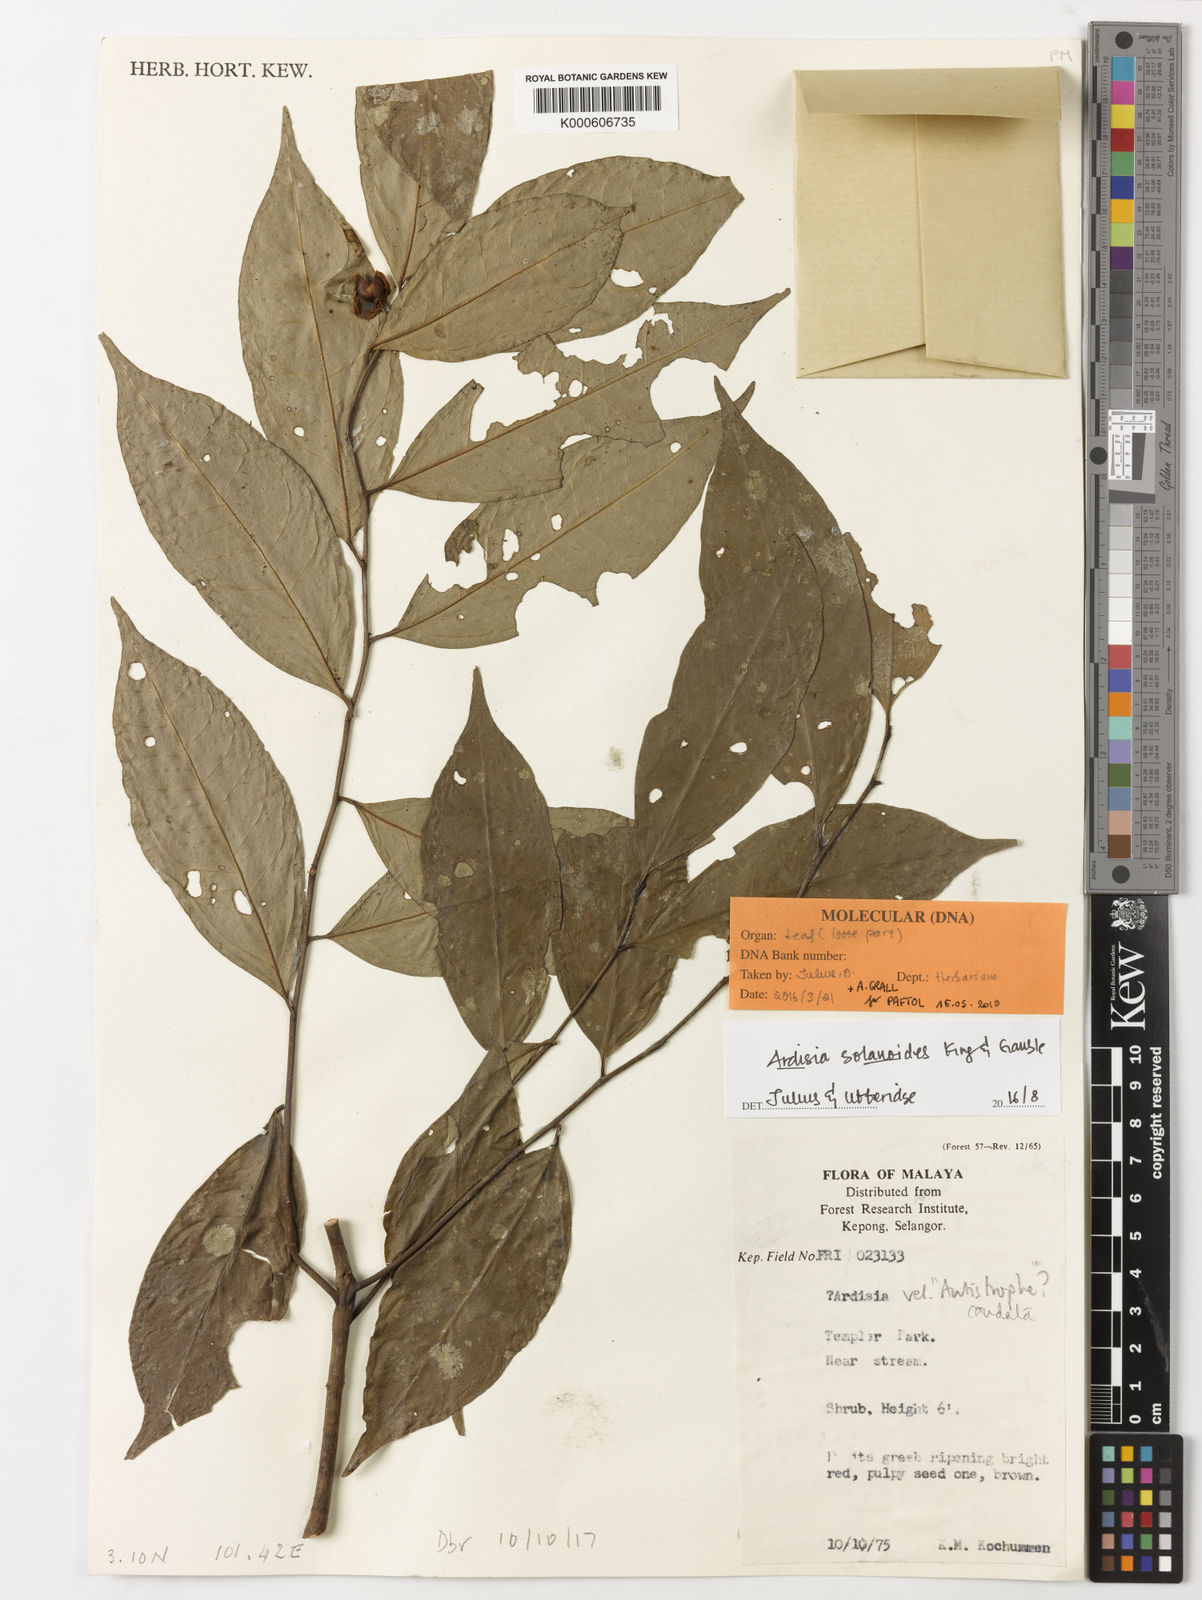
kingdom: Plantae
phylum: Tracheophyta
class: Magnoliopsida
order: Ericales
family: Primulaceae
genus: Antistrophe
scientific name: Antistrophe solanoides
